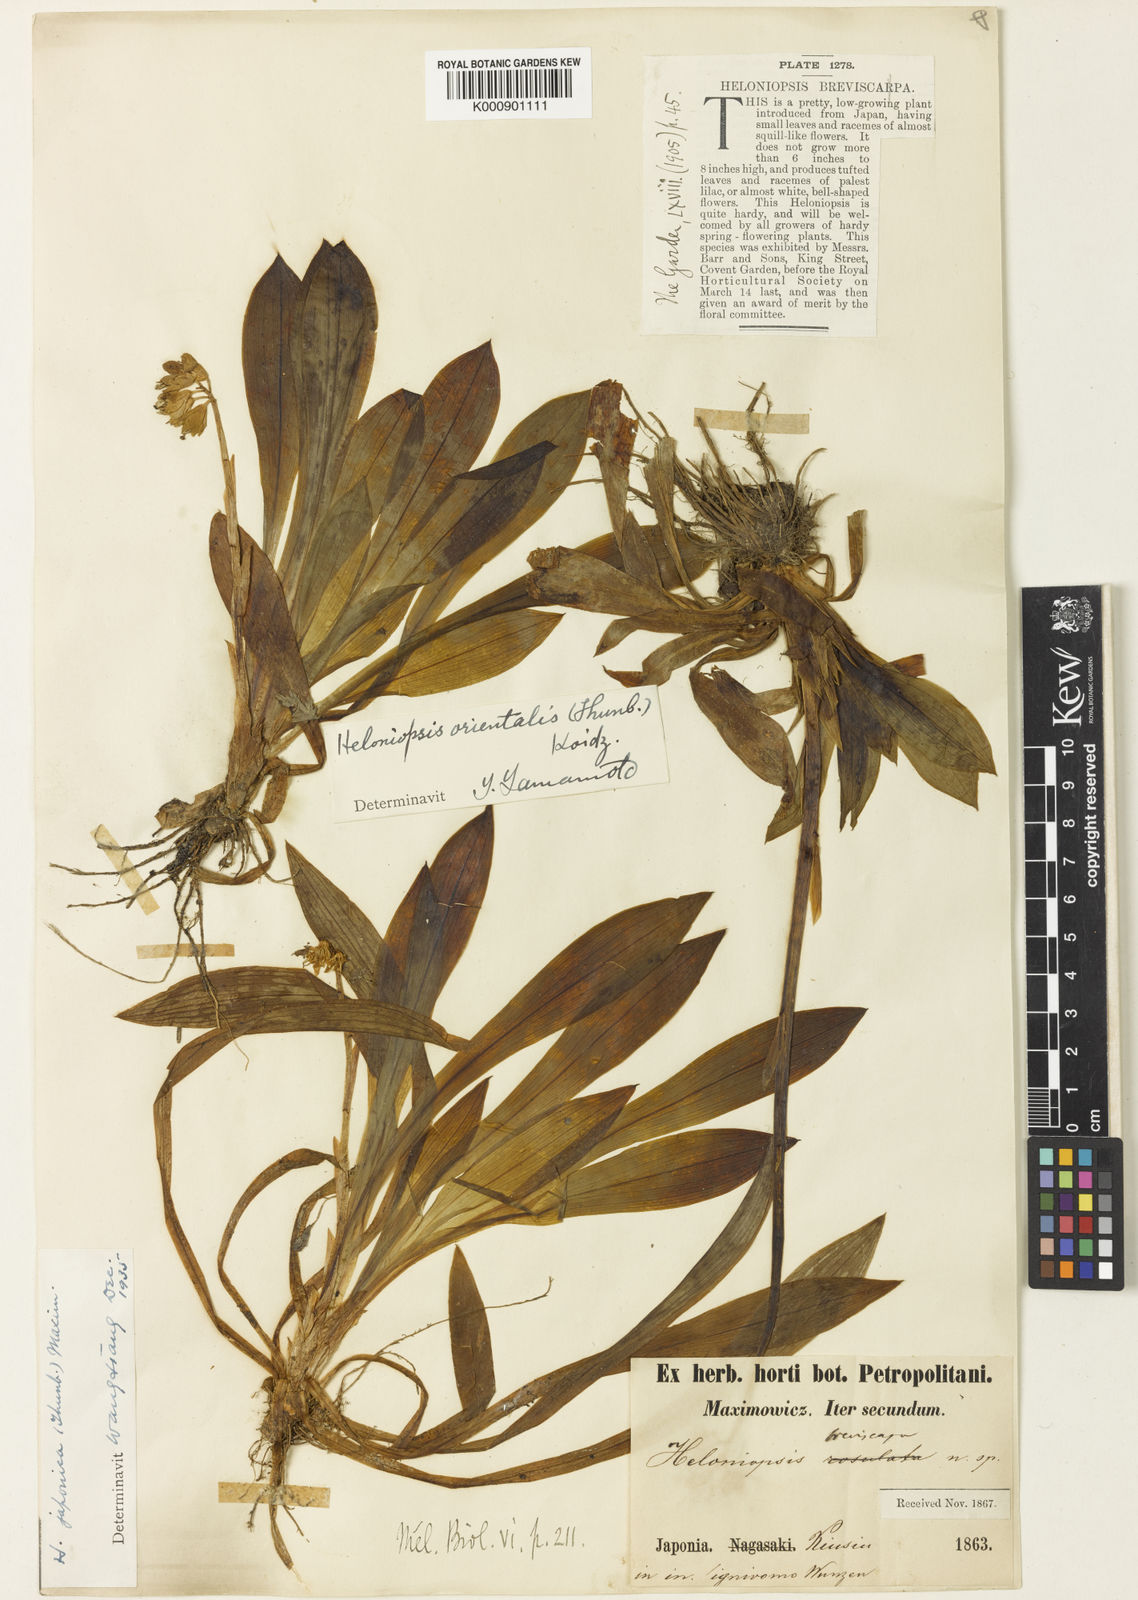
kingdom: Plantae
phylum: Tracheophyta
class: Liliopsida
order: Liliales
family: Melanthiaceae
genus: Helonias
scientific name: Helonias
